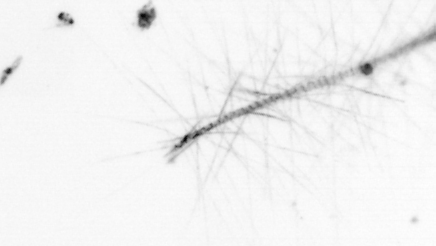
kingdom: Chromista
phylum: Ochrophyta
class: Bacillariophyceae
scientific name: Bacillariophyceae
